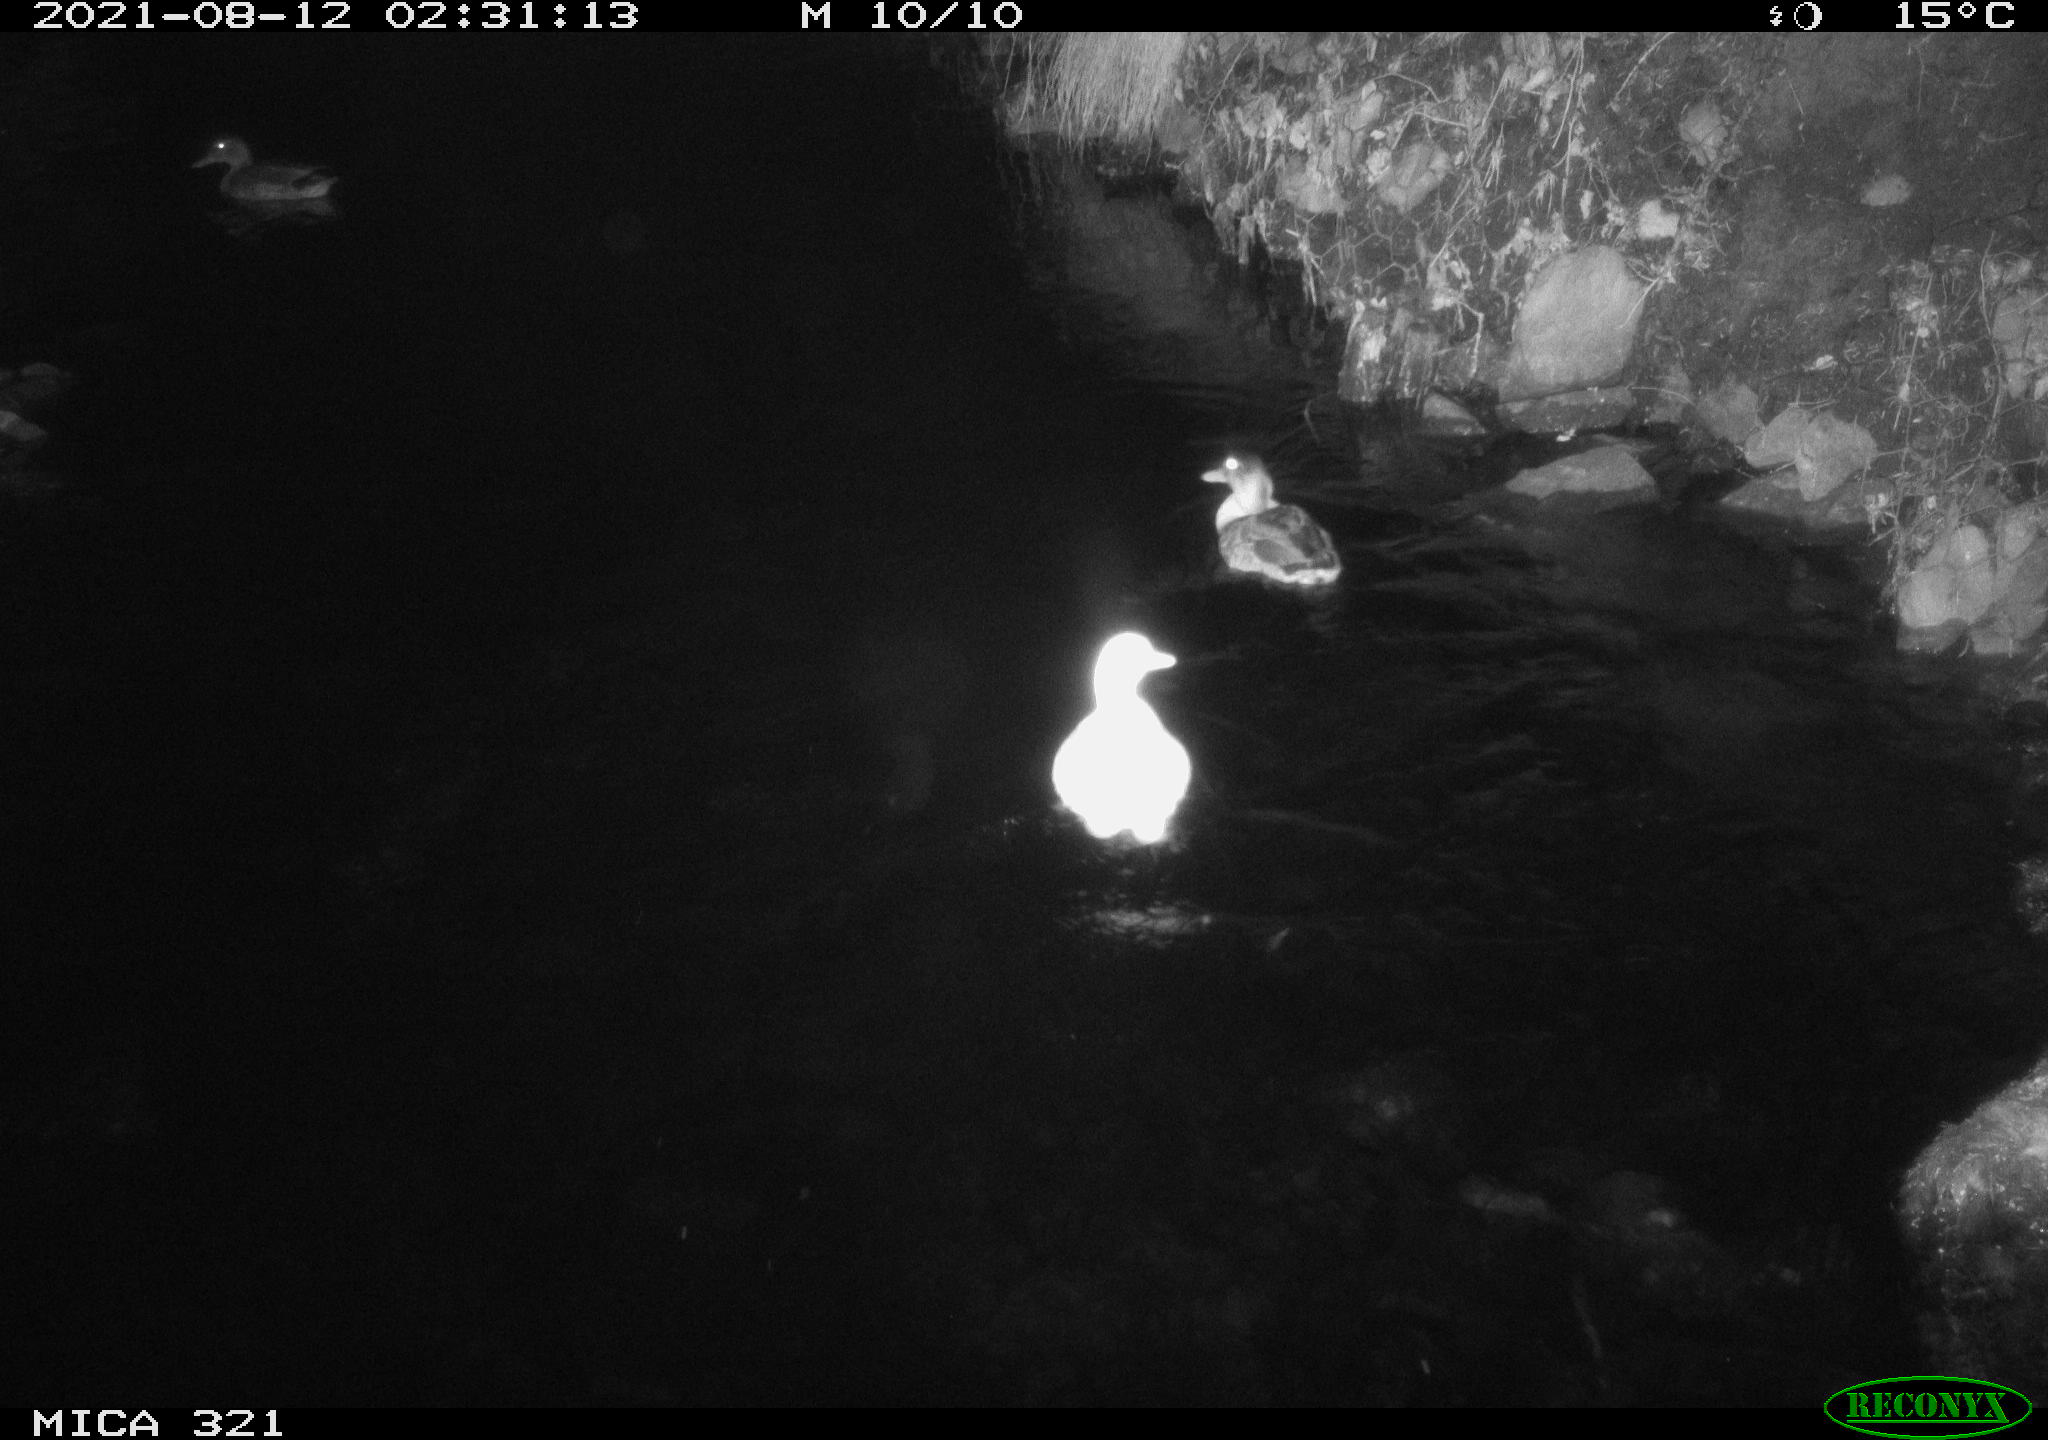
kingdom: Animalia
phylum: Chordata
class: Aves
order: Anseriformes
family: Anatidae
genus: Anas
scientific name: Anas platyrhynchos
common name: Mallard
